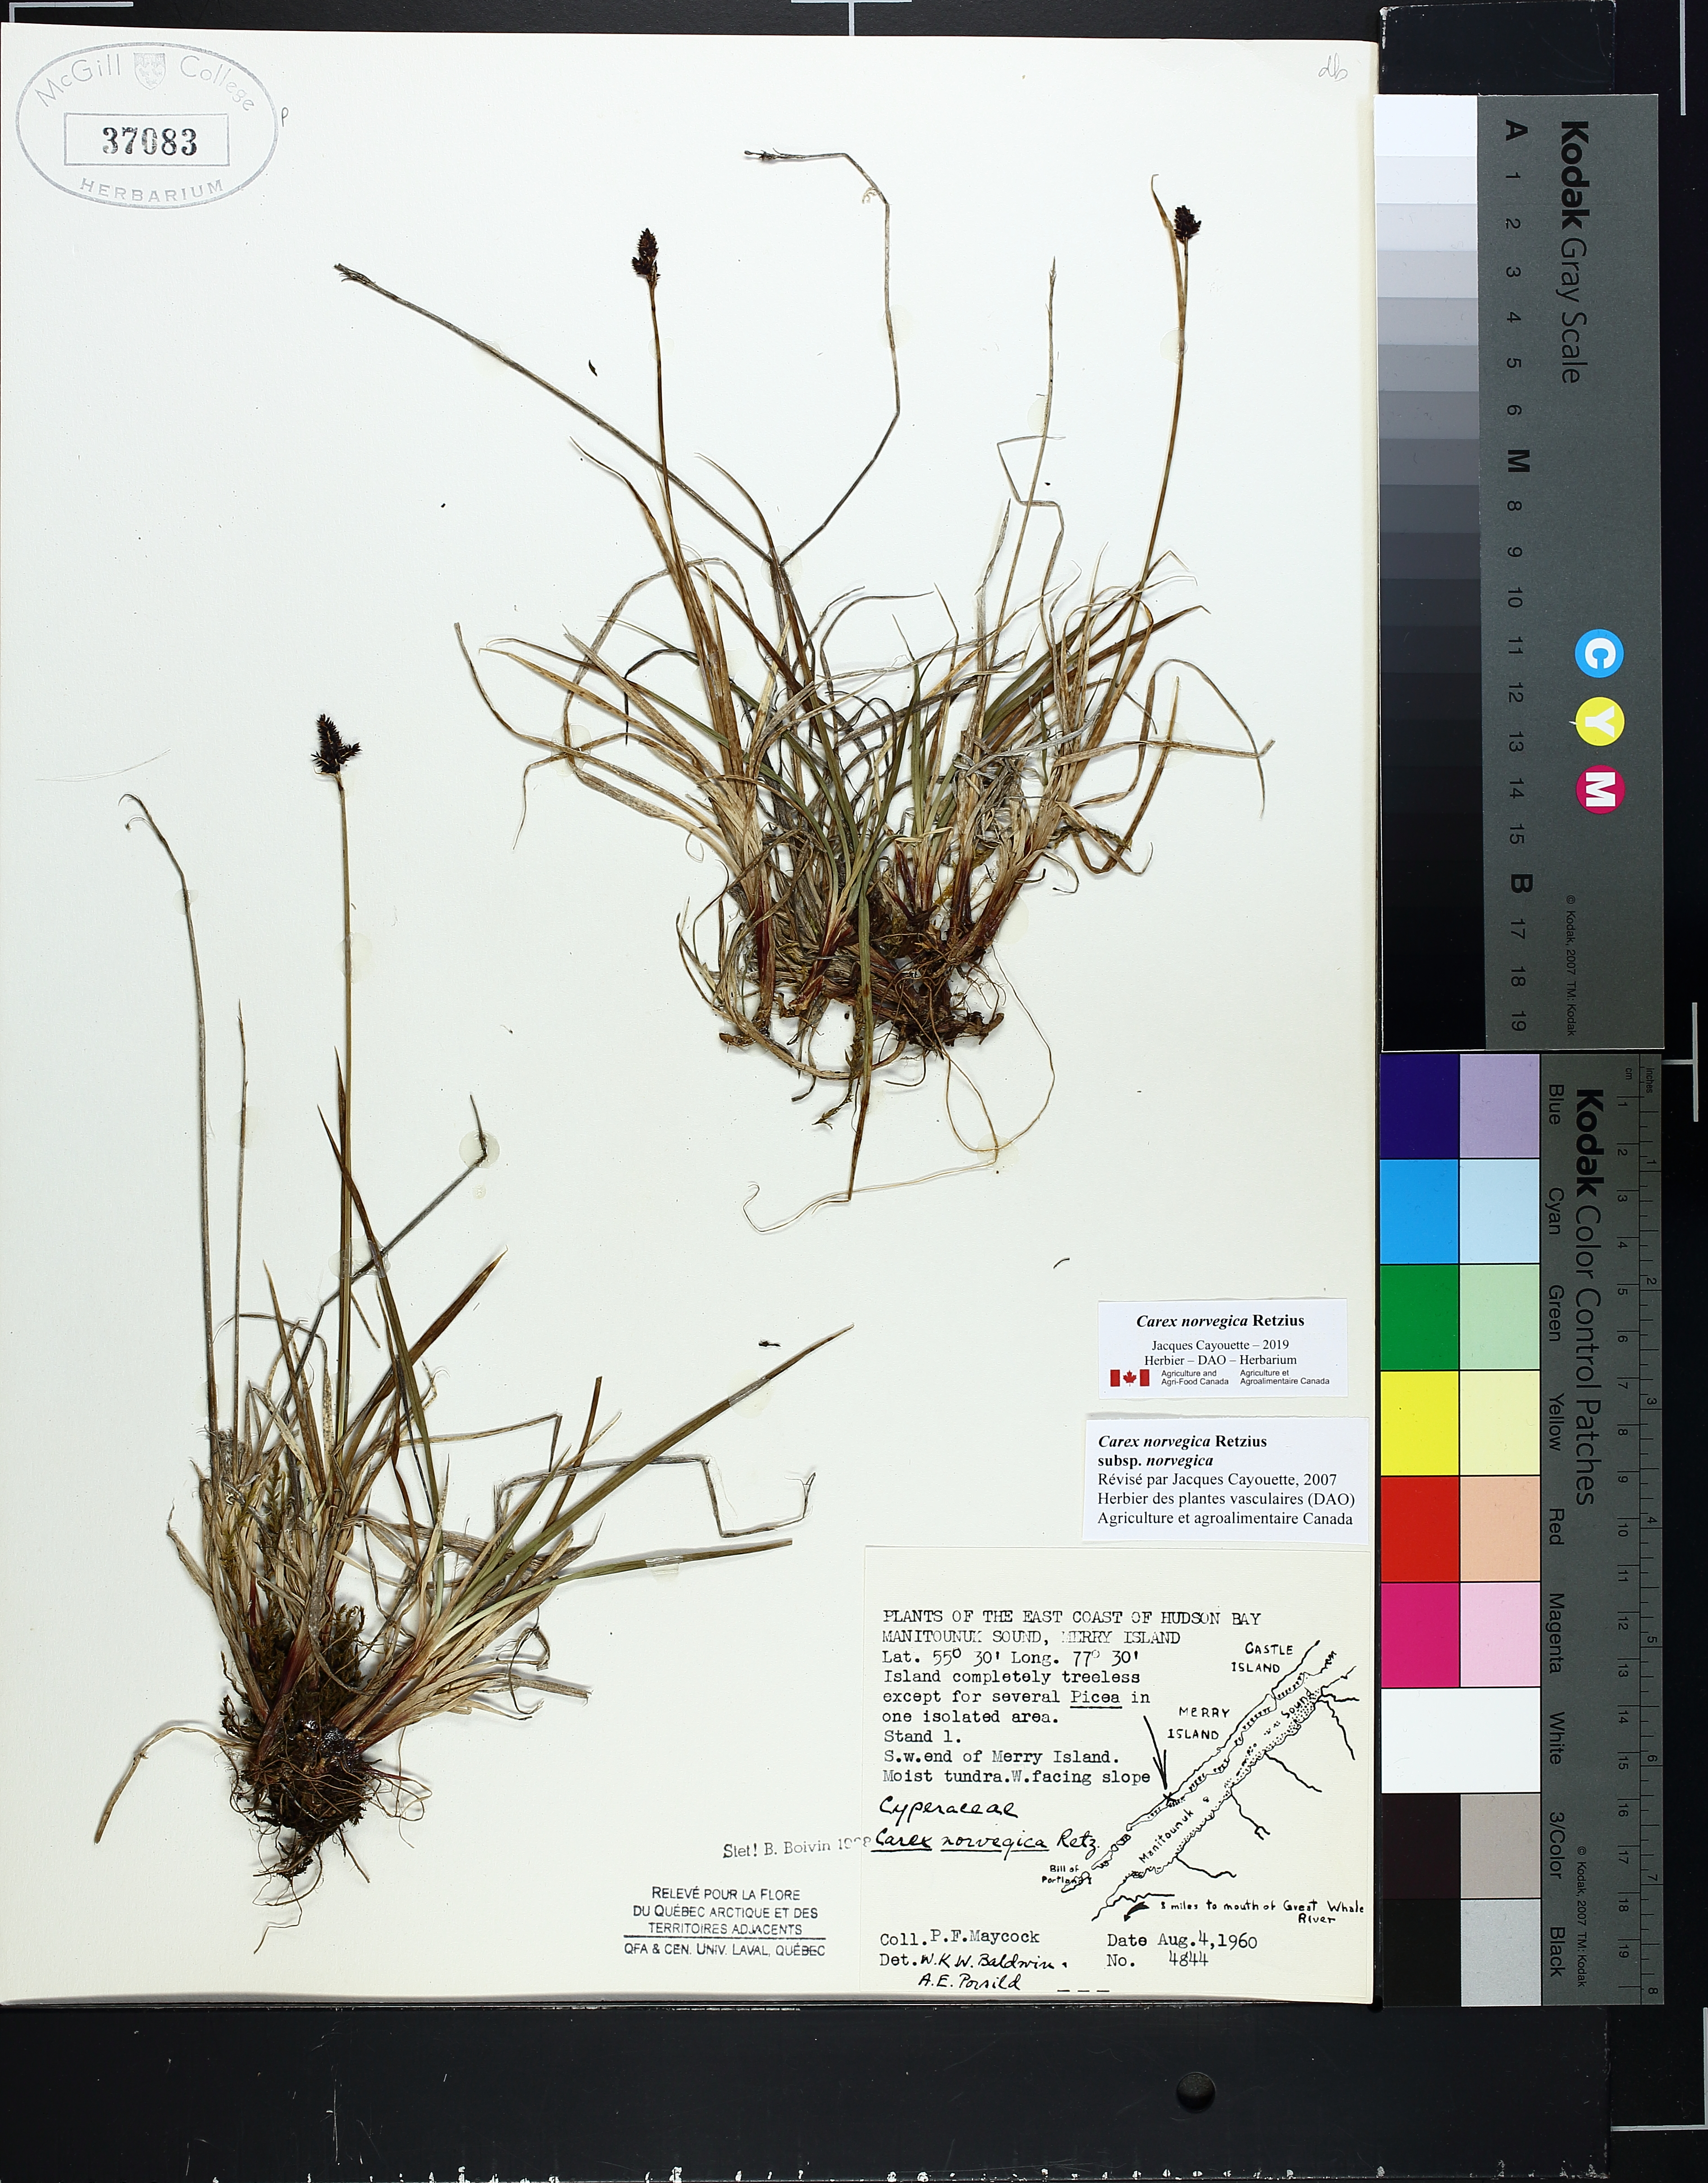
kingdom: Plantae
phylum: Tracheophyta
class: Liliopsida
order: Poales
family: Cyperaceae
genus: Carex
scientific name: Carex norvegica
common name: Close-headed alpine-sedge
